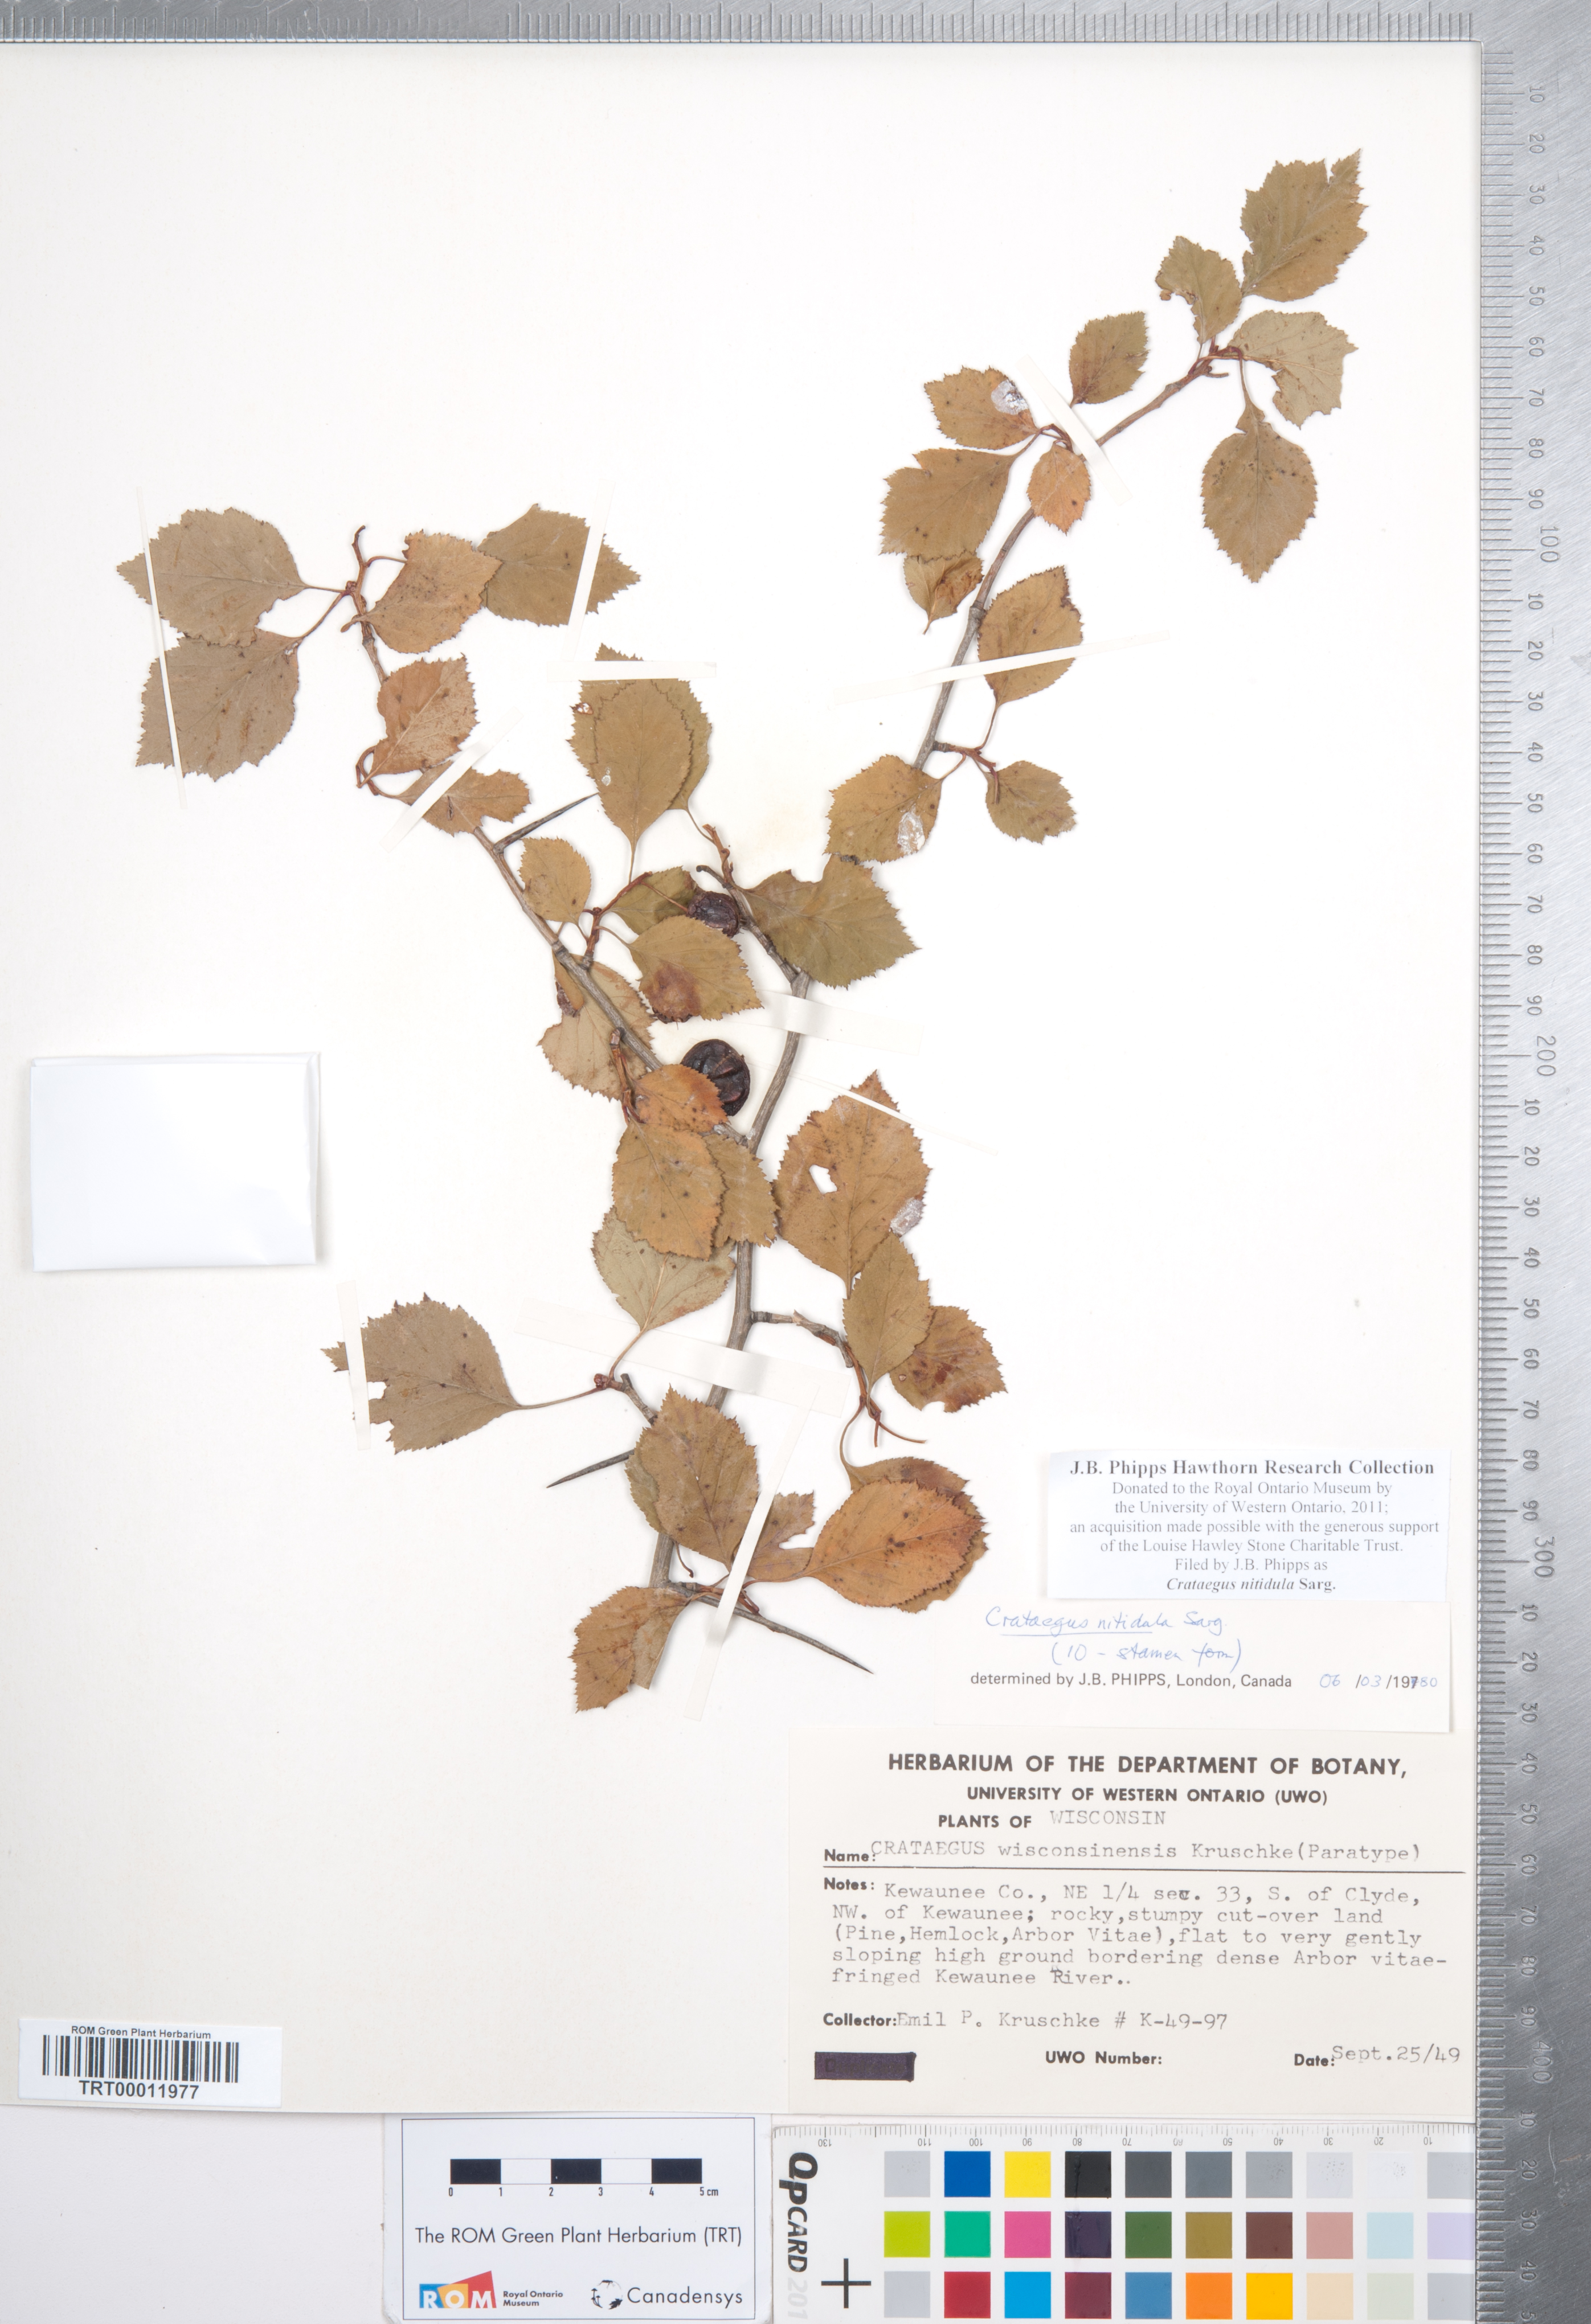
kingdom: Plantae
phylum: Tracheophyta
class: Magnoliopsida
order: Rosales
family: Rosaceae
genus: Crataegus
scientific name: Crataegus nitidula
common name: Ontario hawthorn
